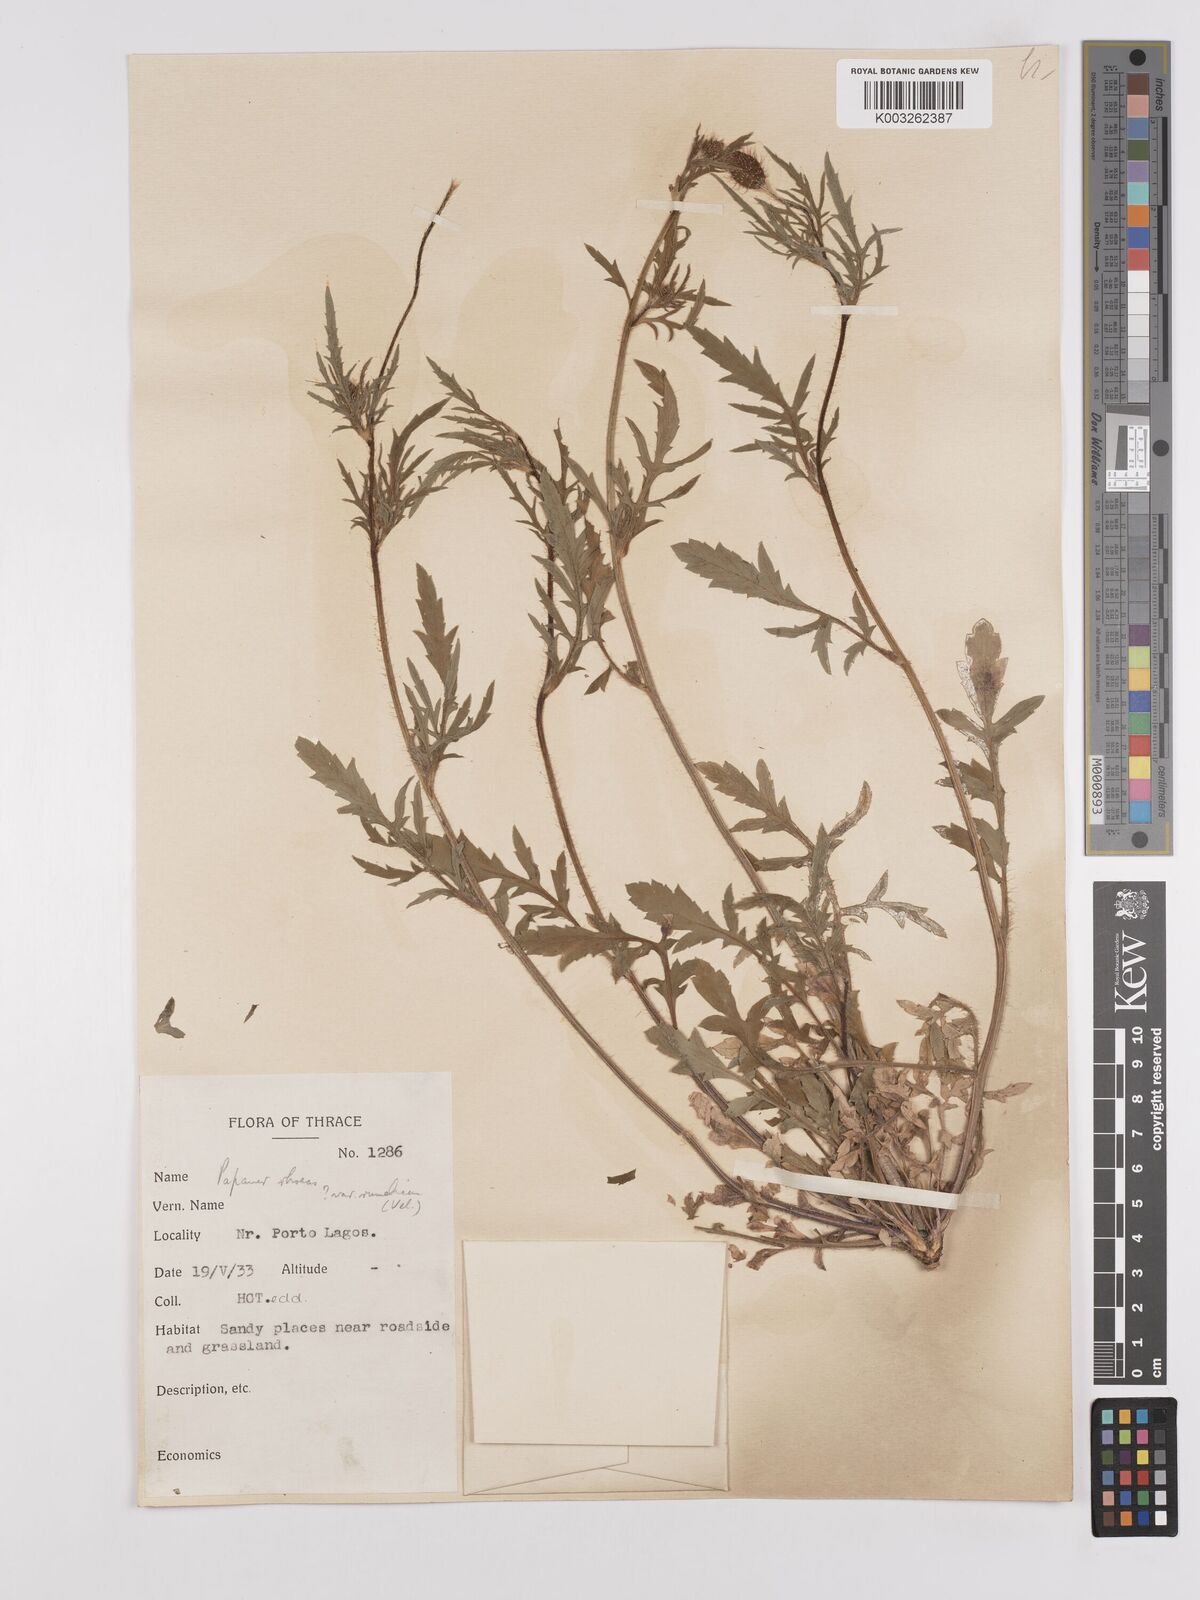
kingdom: Plantae
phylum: Tracheophyta
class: Magnoliopsida
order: Ranunculales
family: Papaveraceae
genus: Papaver
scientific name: Papaver rhoeas
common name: Corn poppy
